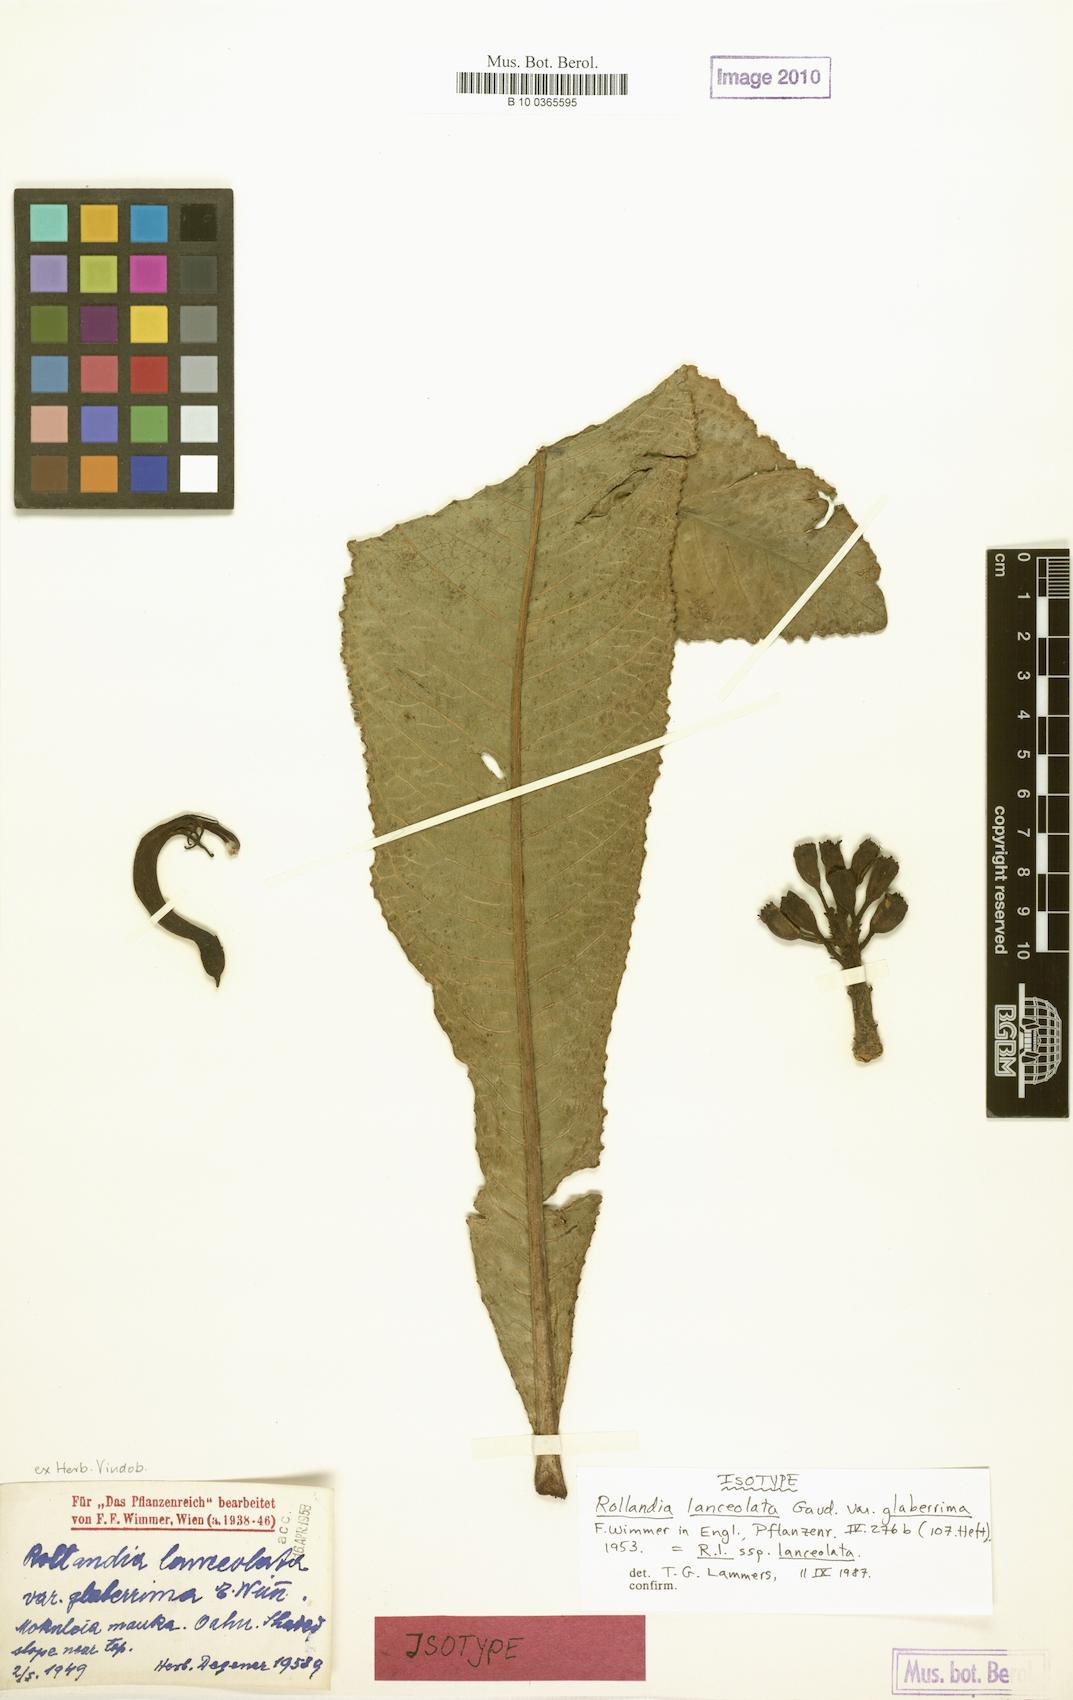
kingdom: Plantae
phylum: Tracheophyta
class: Magnoliopsida
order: Asterales
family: Campanulaceae
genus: Cyanea
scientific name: Cyanea lanceolata
